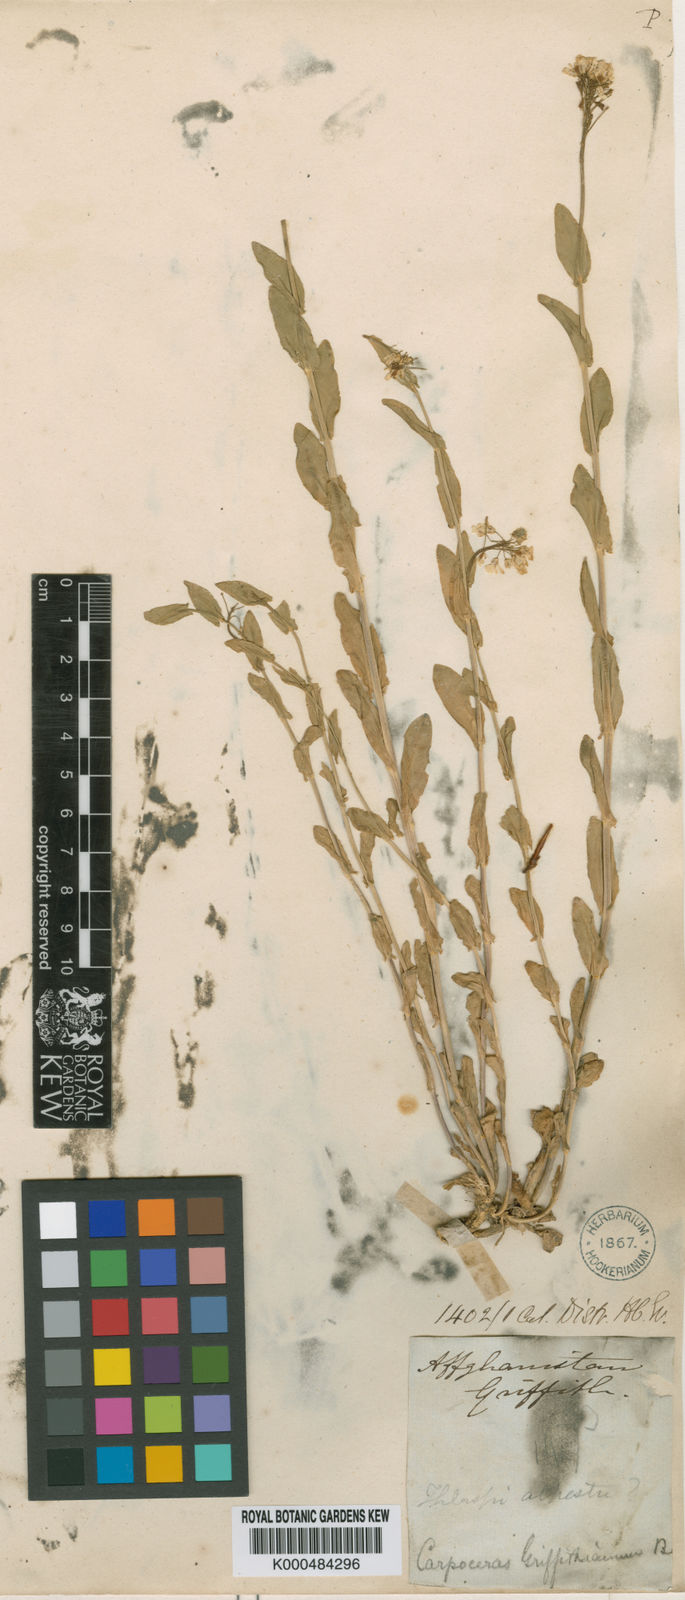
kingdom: Plantae
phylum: Tracheophyta
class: Magnoliopsida
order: Brassicales
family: Brassicaceae
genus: Noccaea
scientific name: Noccaea griffithiana
